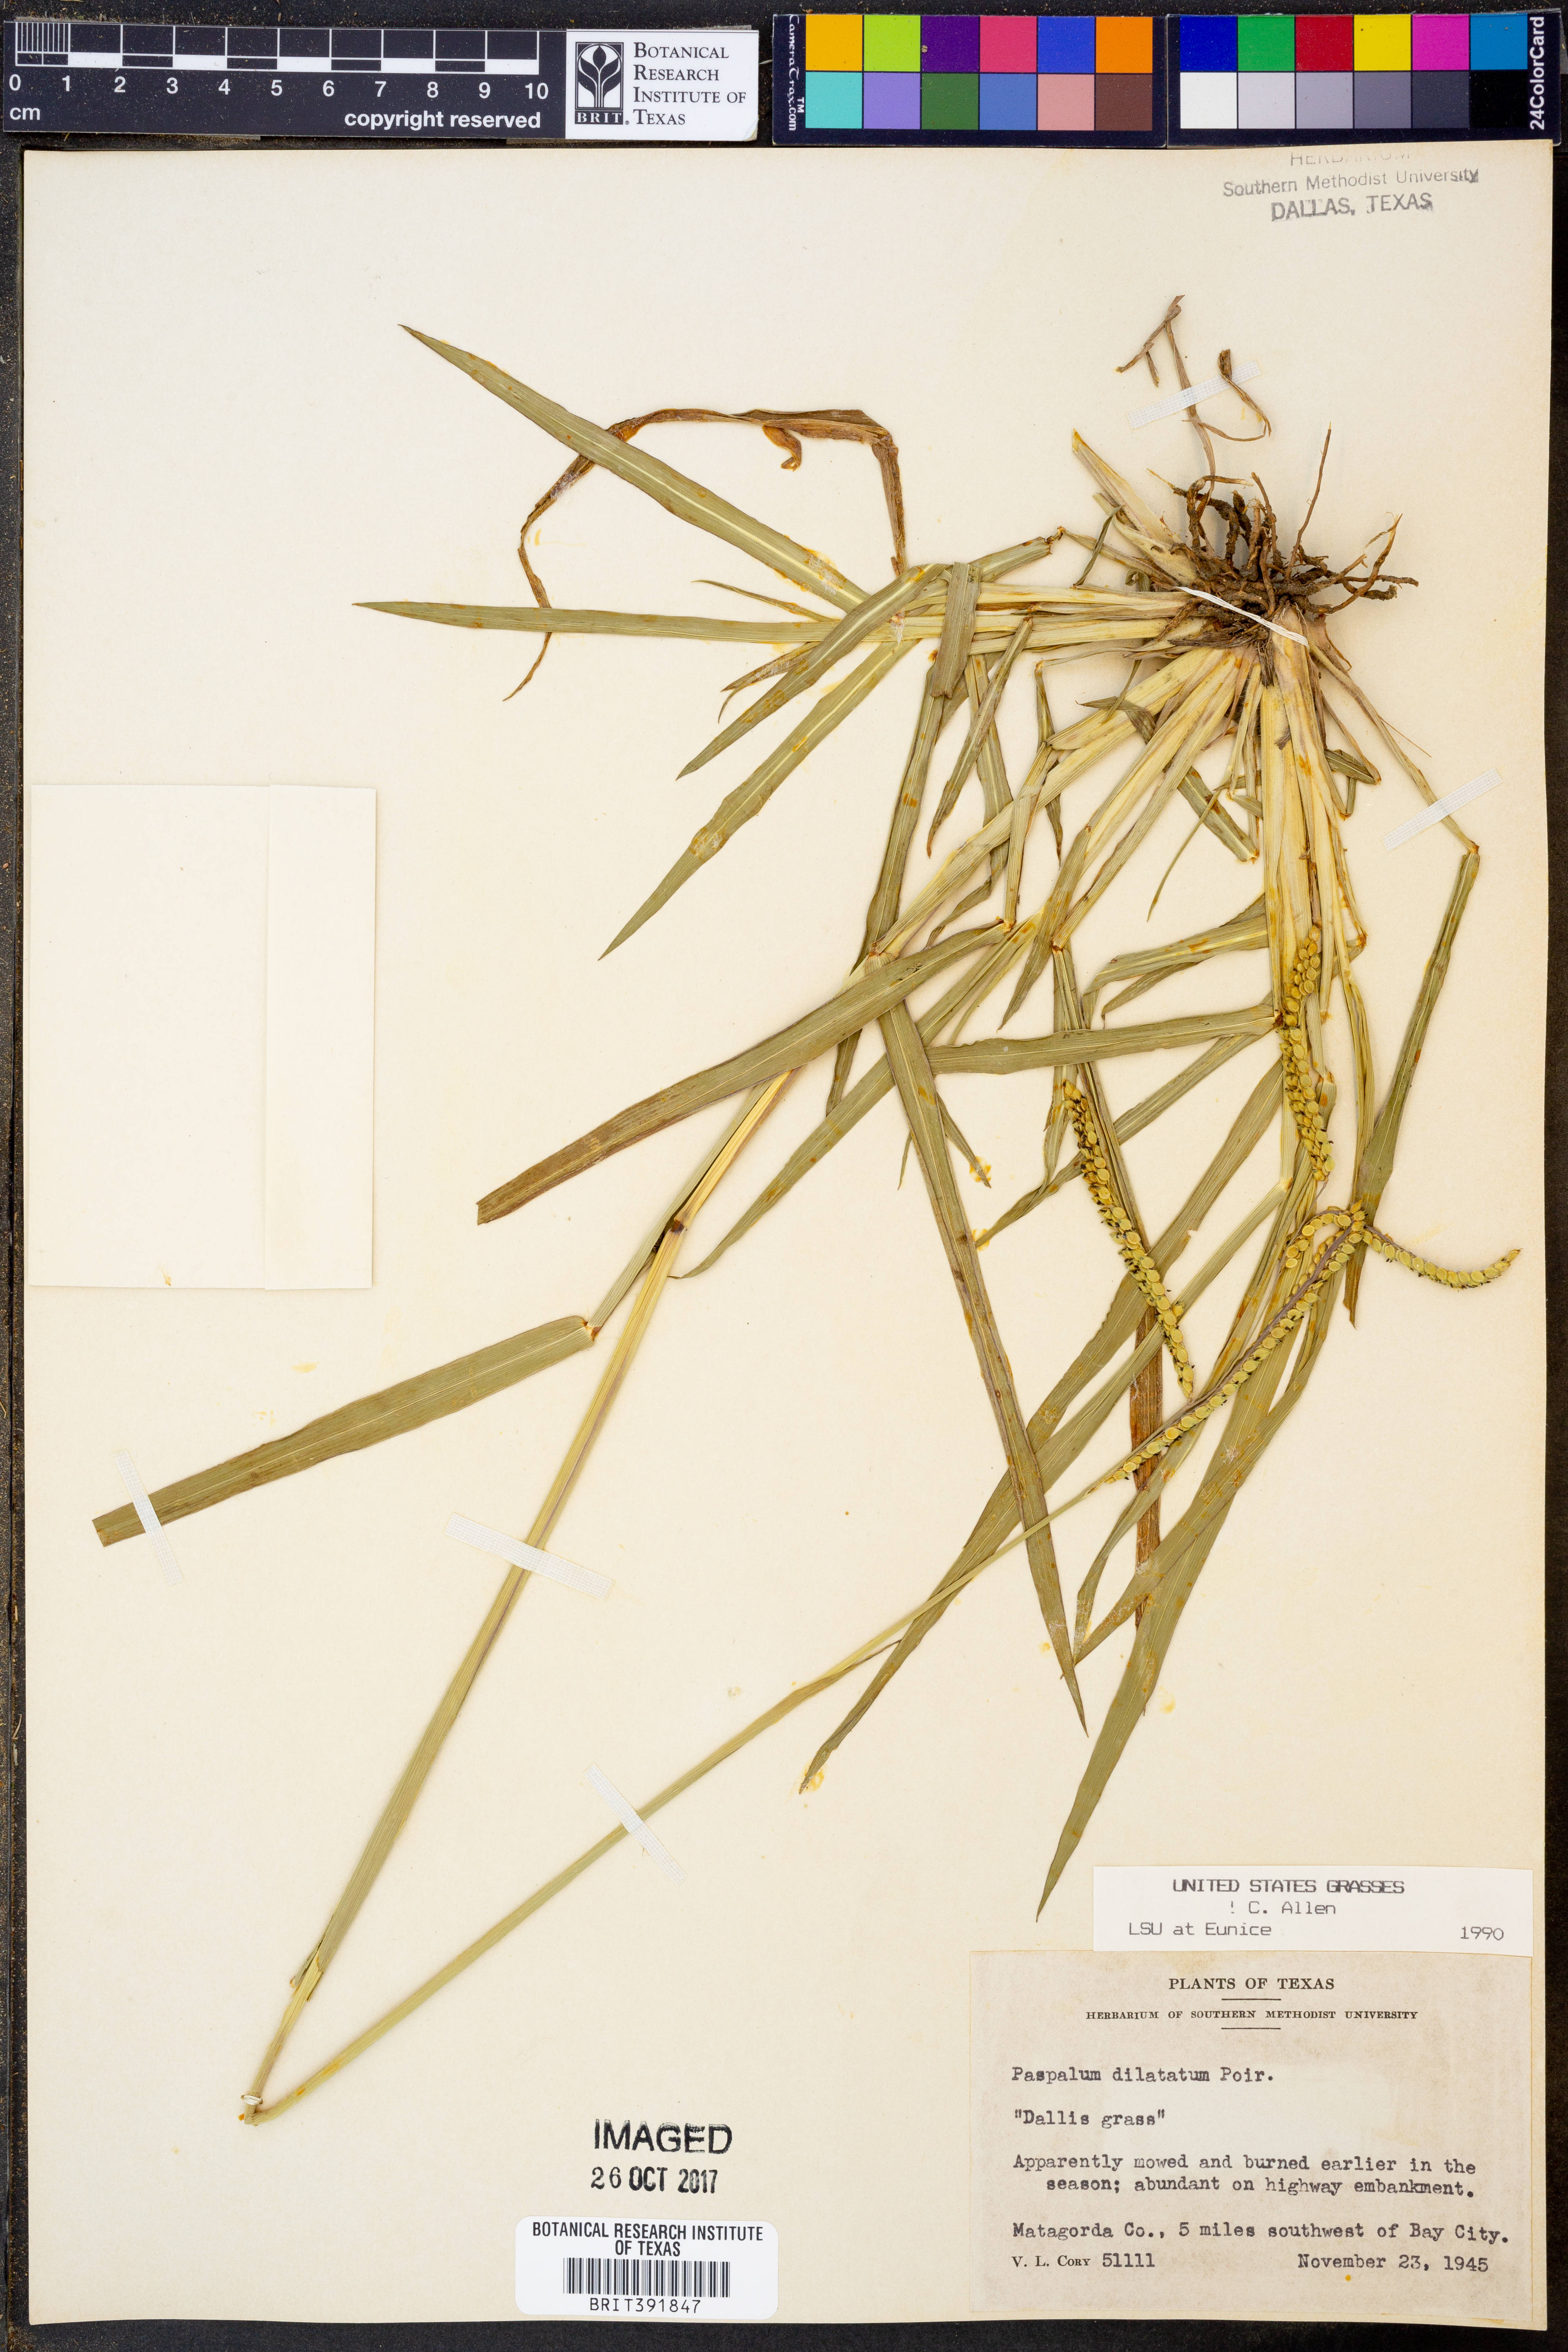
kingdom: Plantae
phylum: Tracheophyta
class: Liliopsida
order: Poales
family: Poaceae
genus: Paspalum
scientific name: Paspalum dilatatum
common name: Dallisgrass
